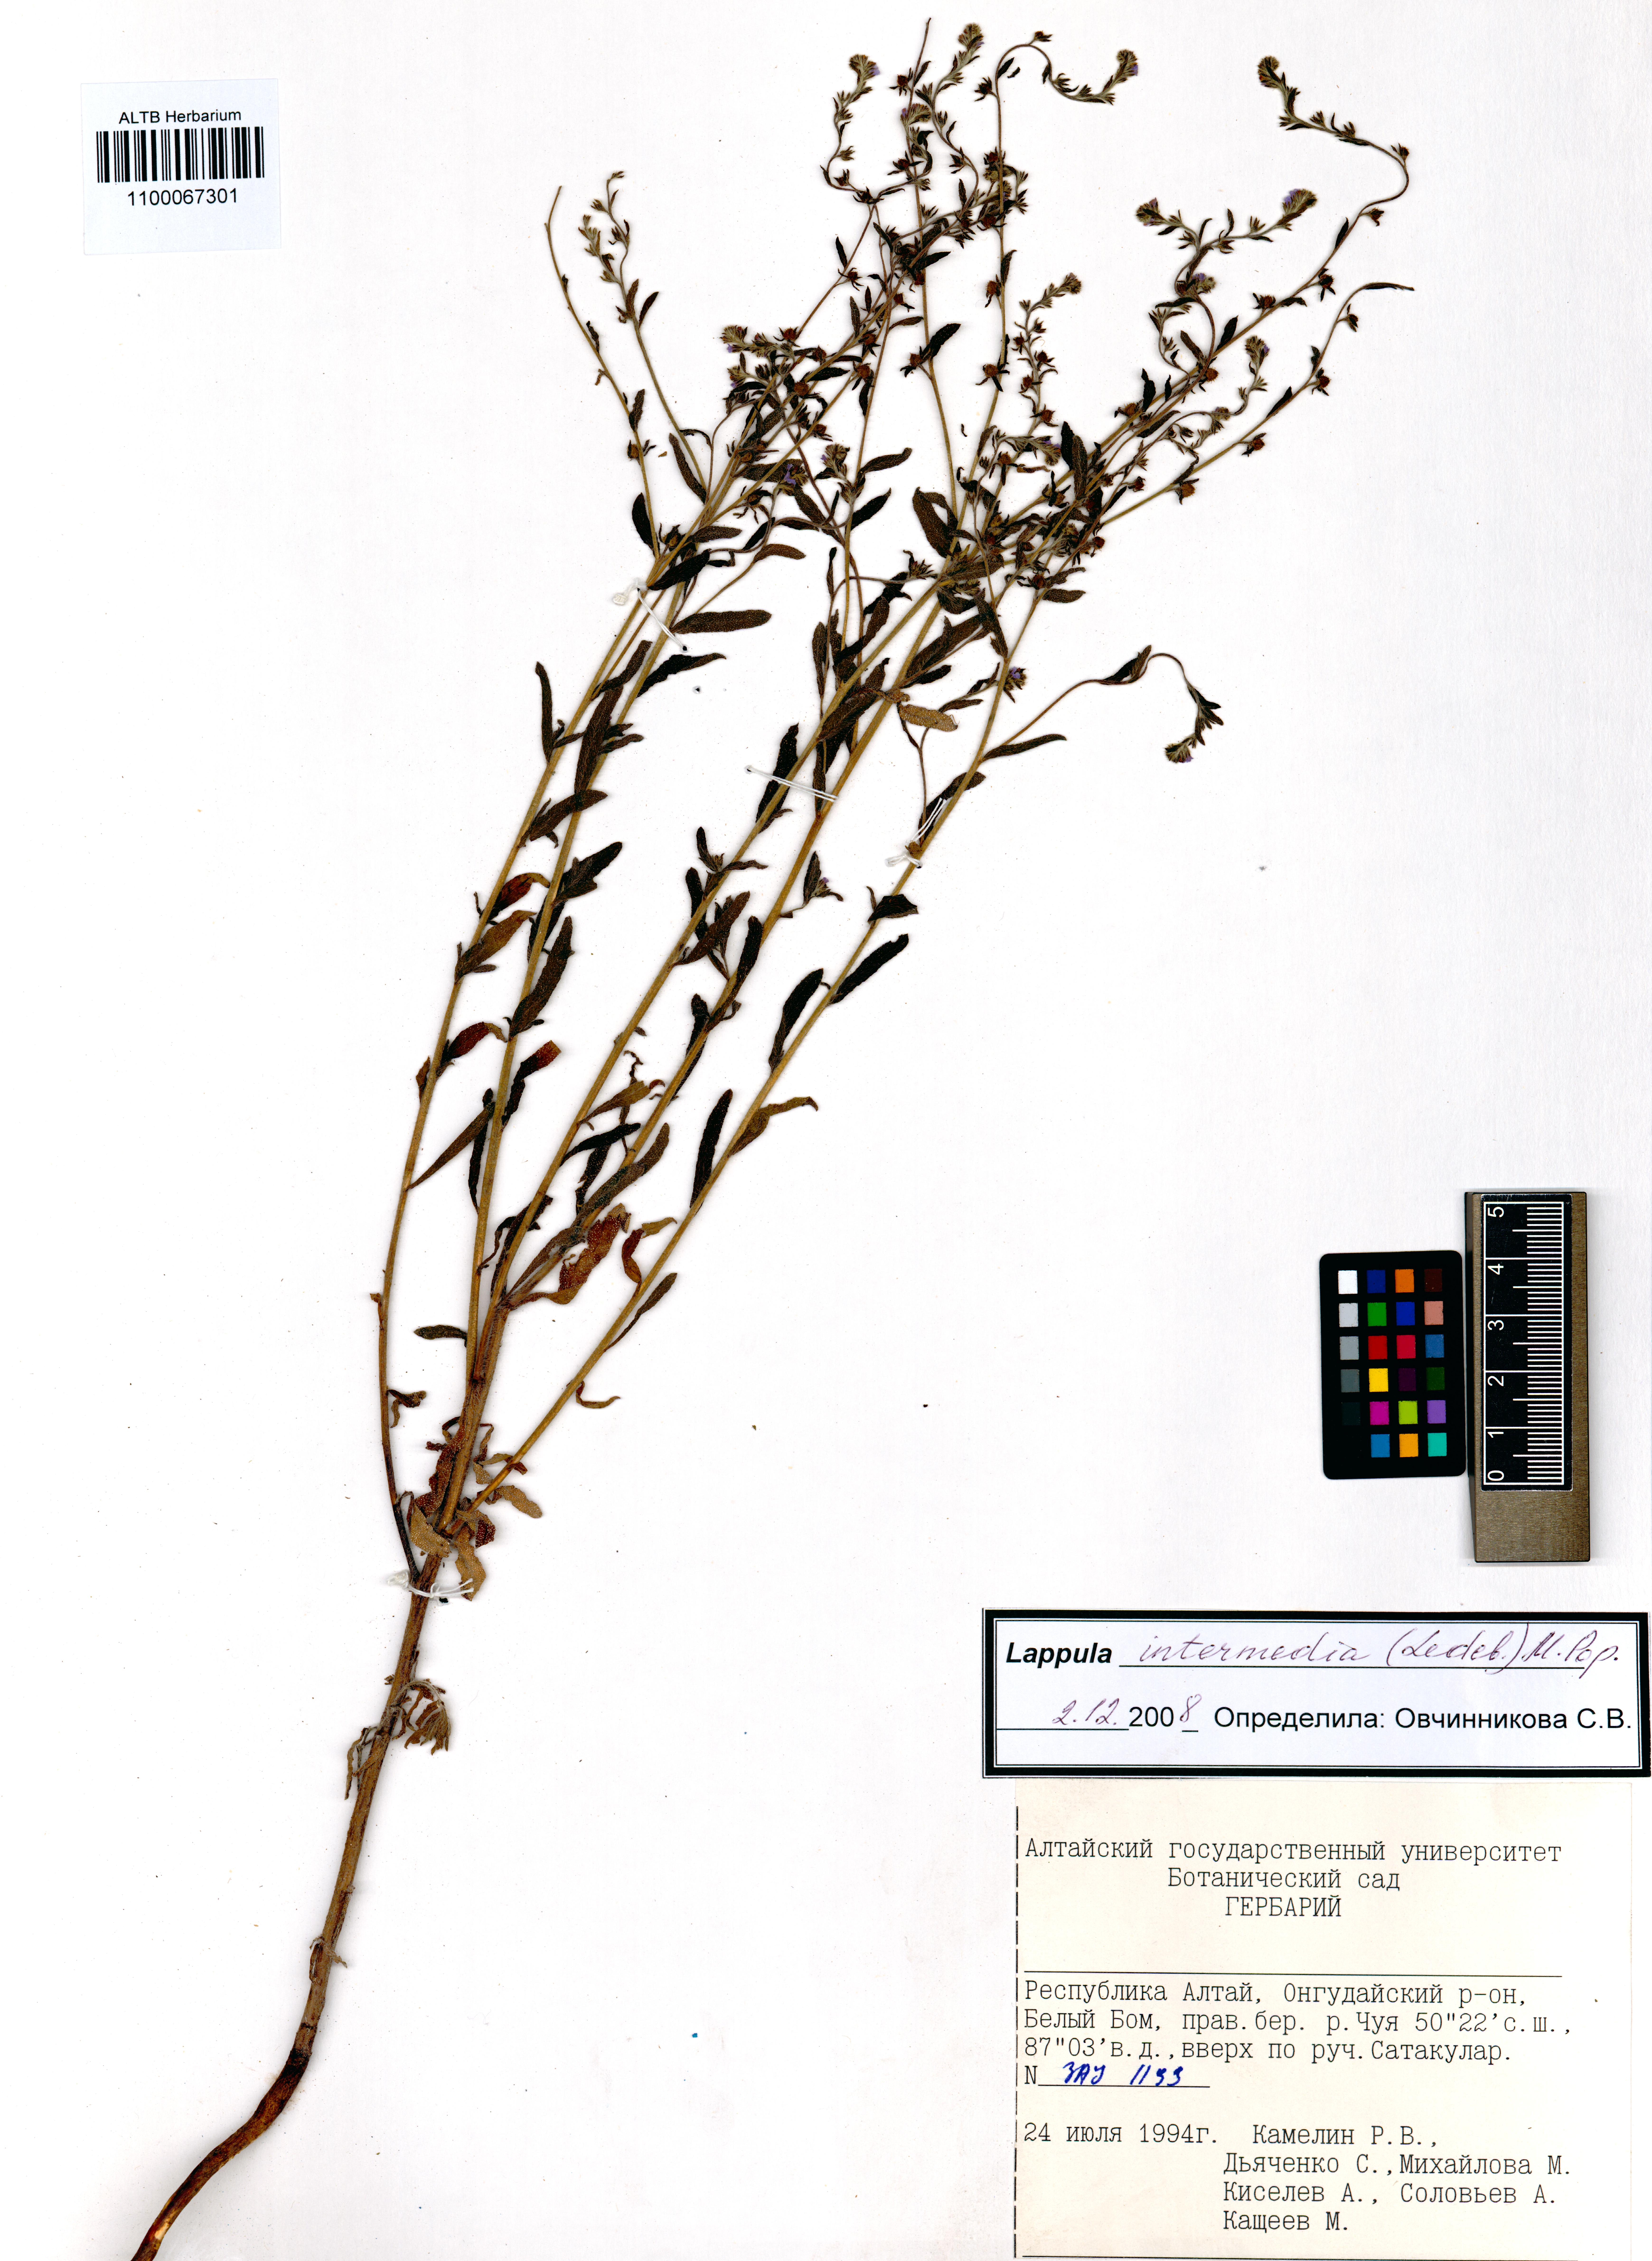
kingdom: Plantae
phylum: Tracheophyta
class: Magnoliopsida
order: Boraginales
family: Boraginaceae
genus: Lappula
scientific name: Lappula intermedia
